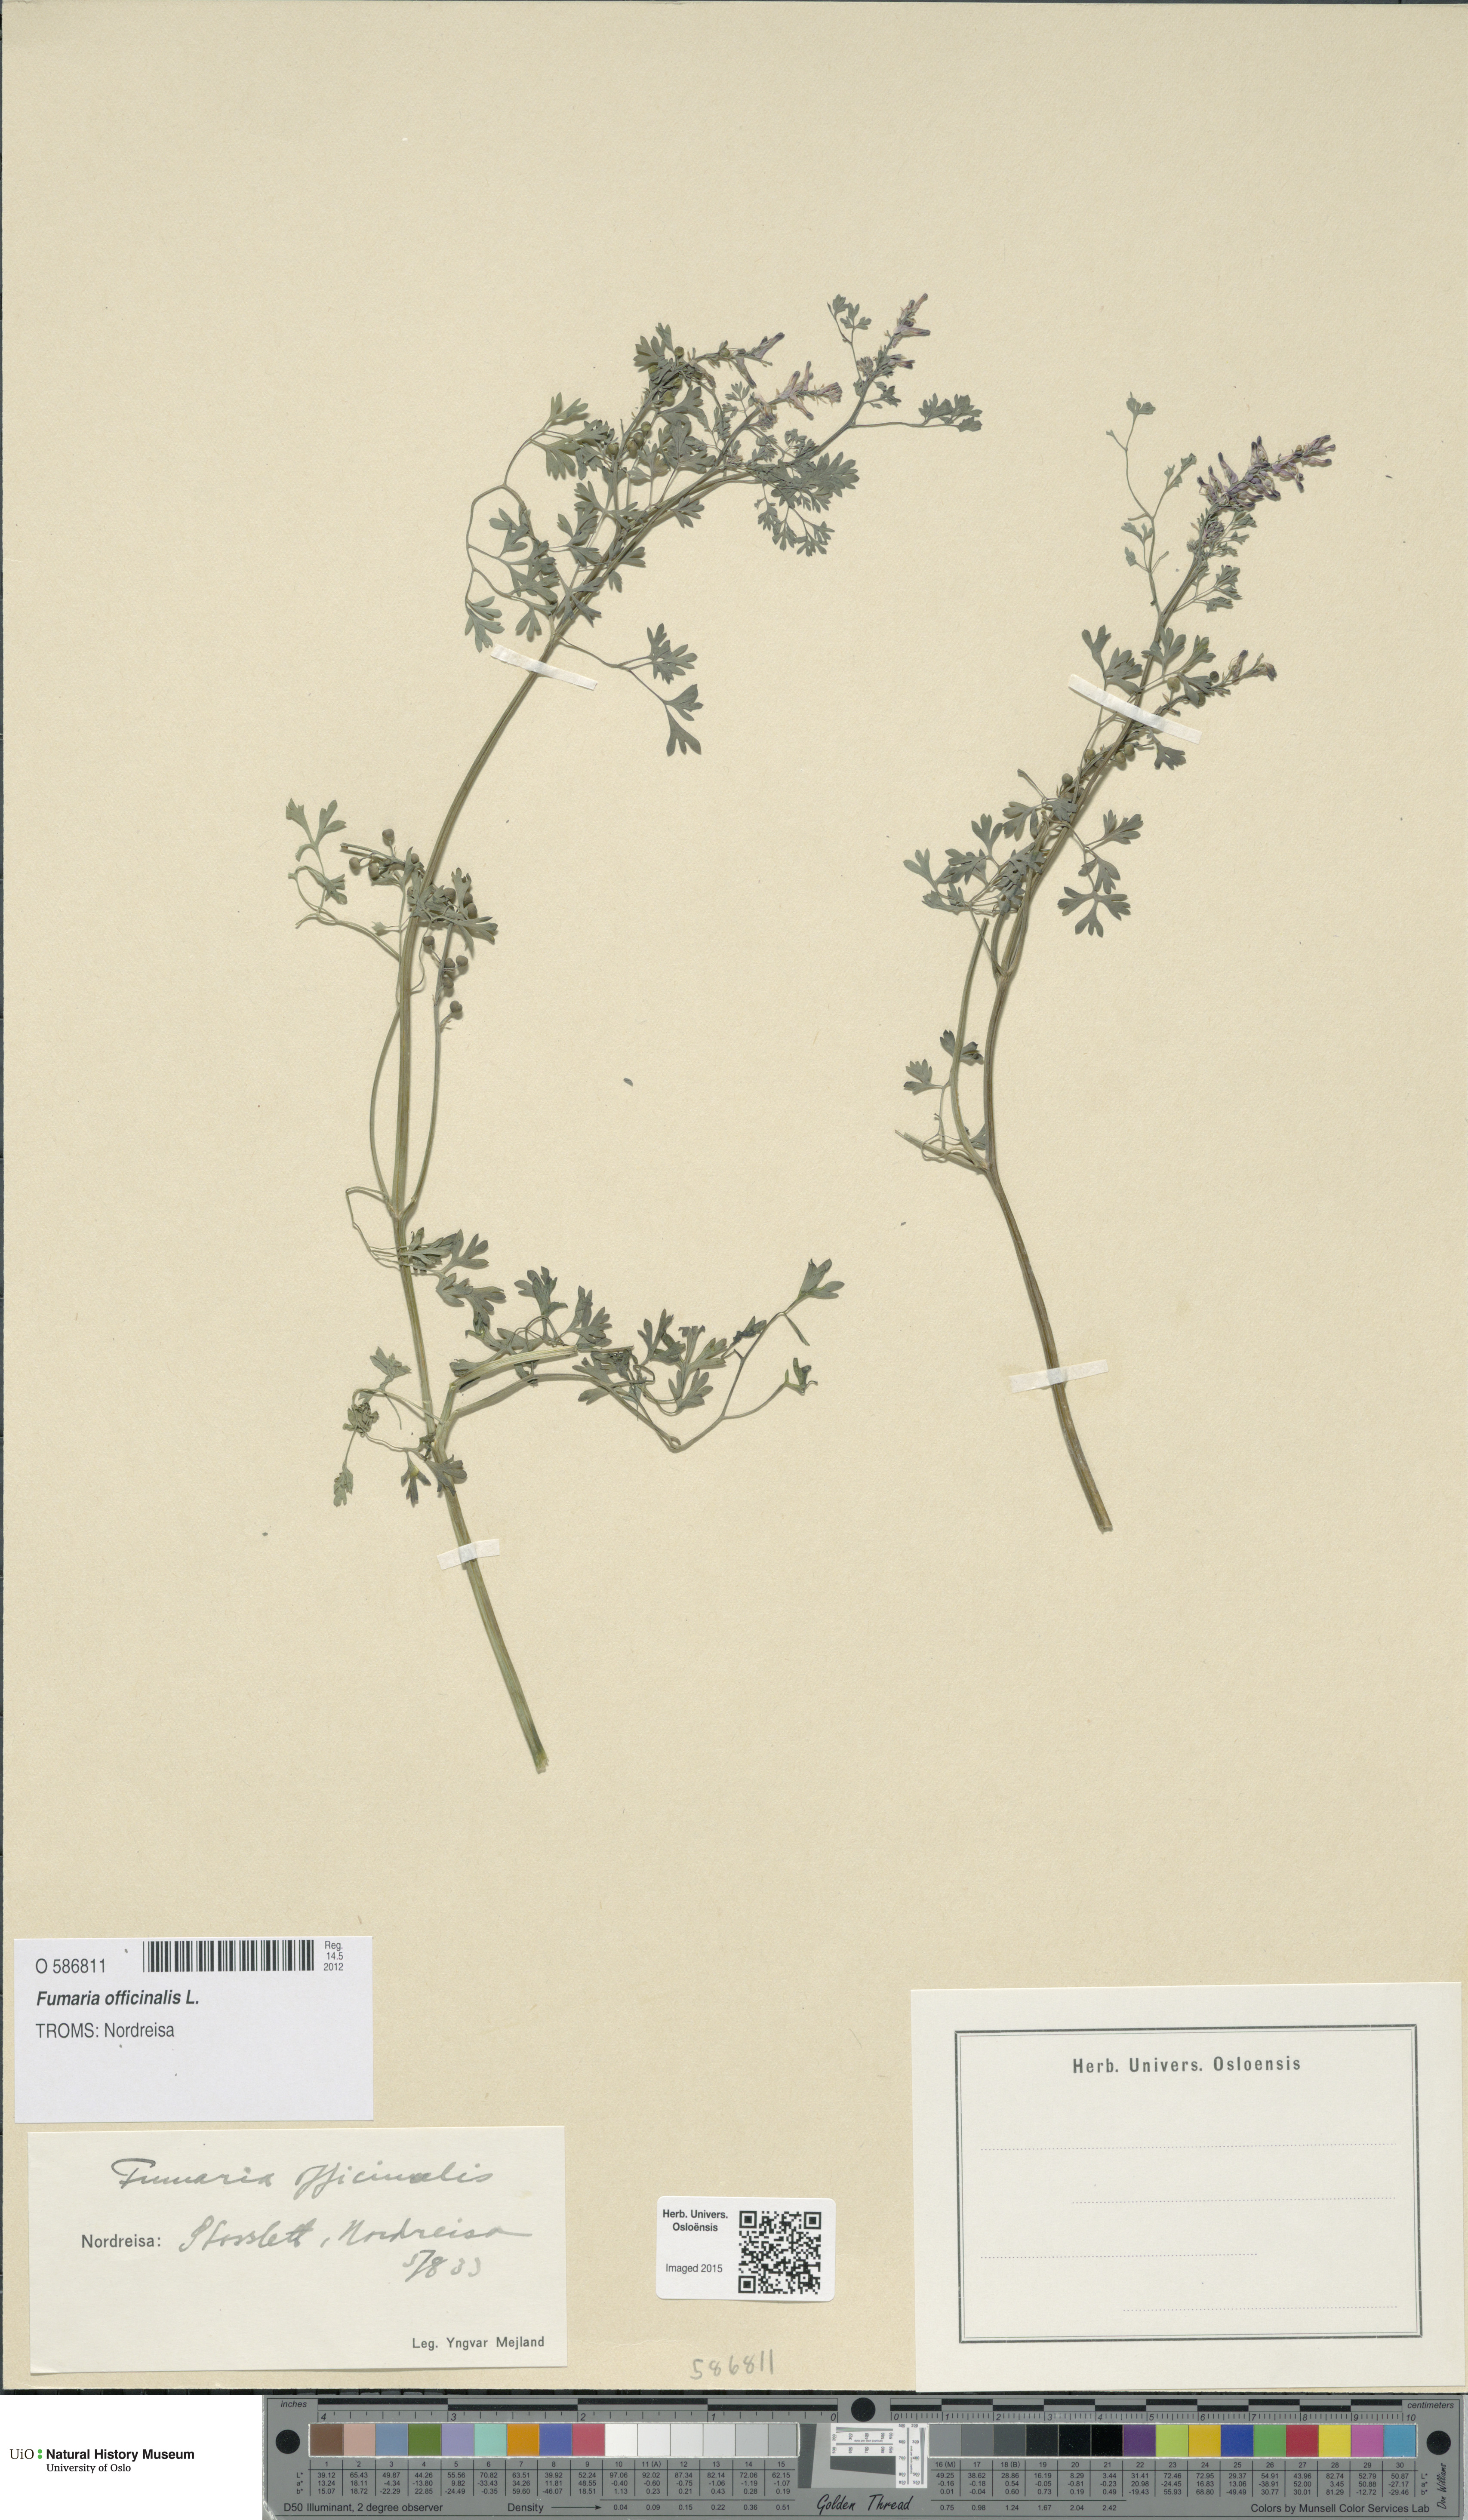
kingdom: Plantae
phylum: Tracheophyta
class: Magnoliopsida
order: Ranunculales
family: Papaveraceae
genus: Fumaria
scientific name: Fumaria officinalis
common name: Common fumitory
